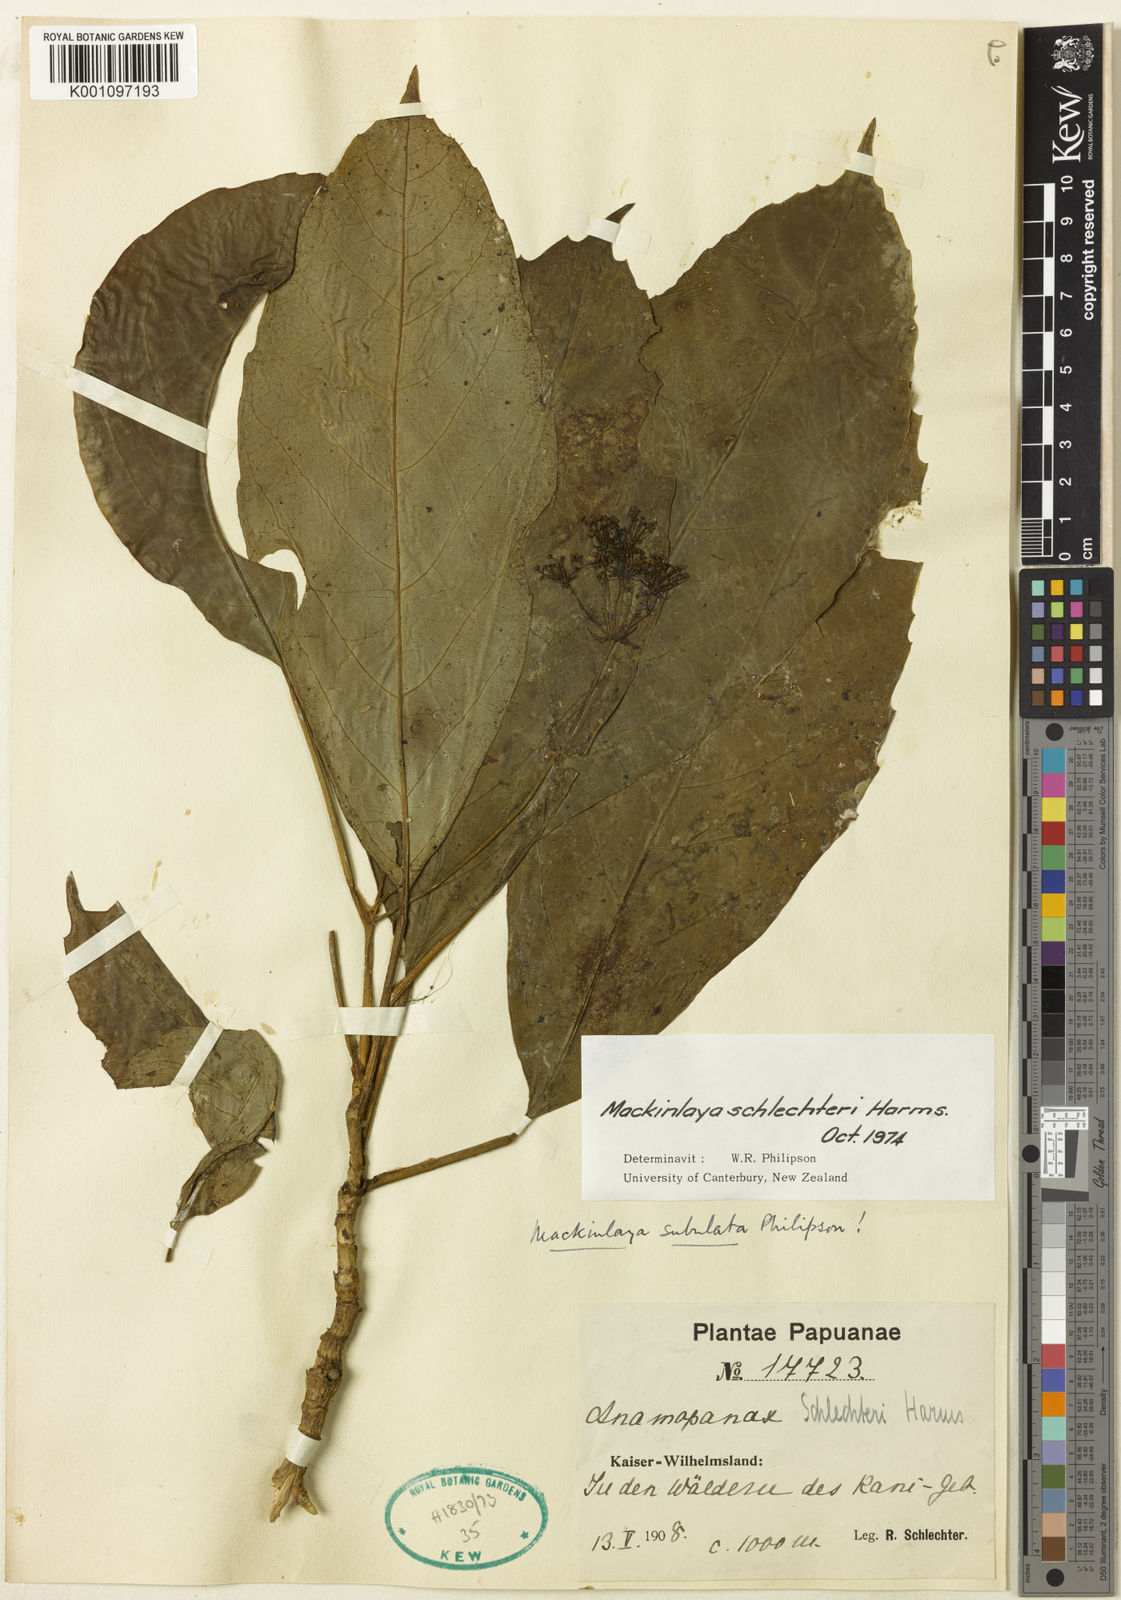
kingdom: Plantae
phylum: Tracheophyta
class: Magnoliopsida
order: Apiales
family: Apiaceae
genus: Mackinlaya
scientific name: Mackinlaya schlechteri
